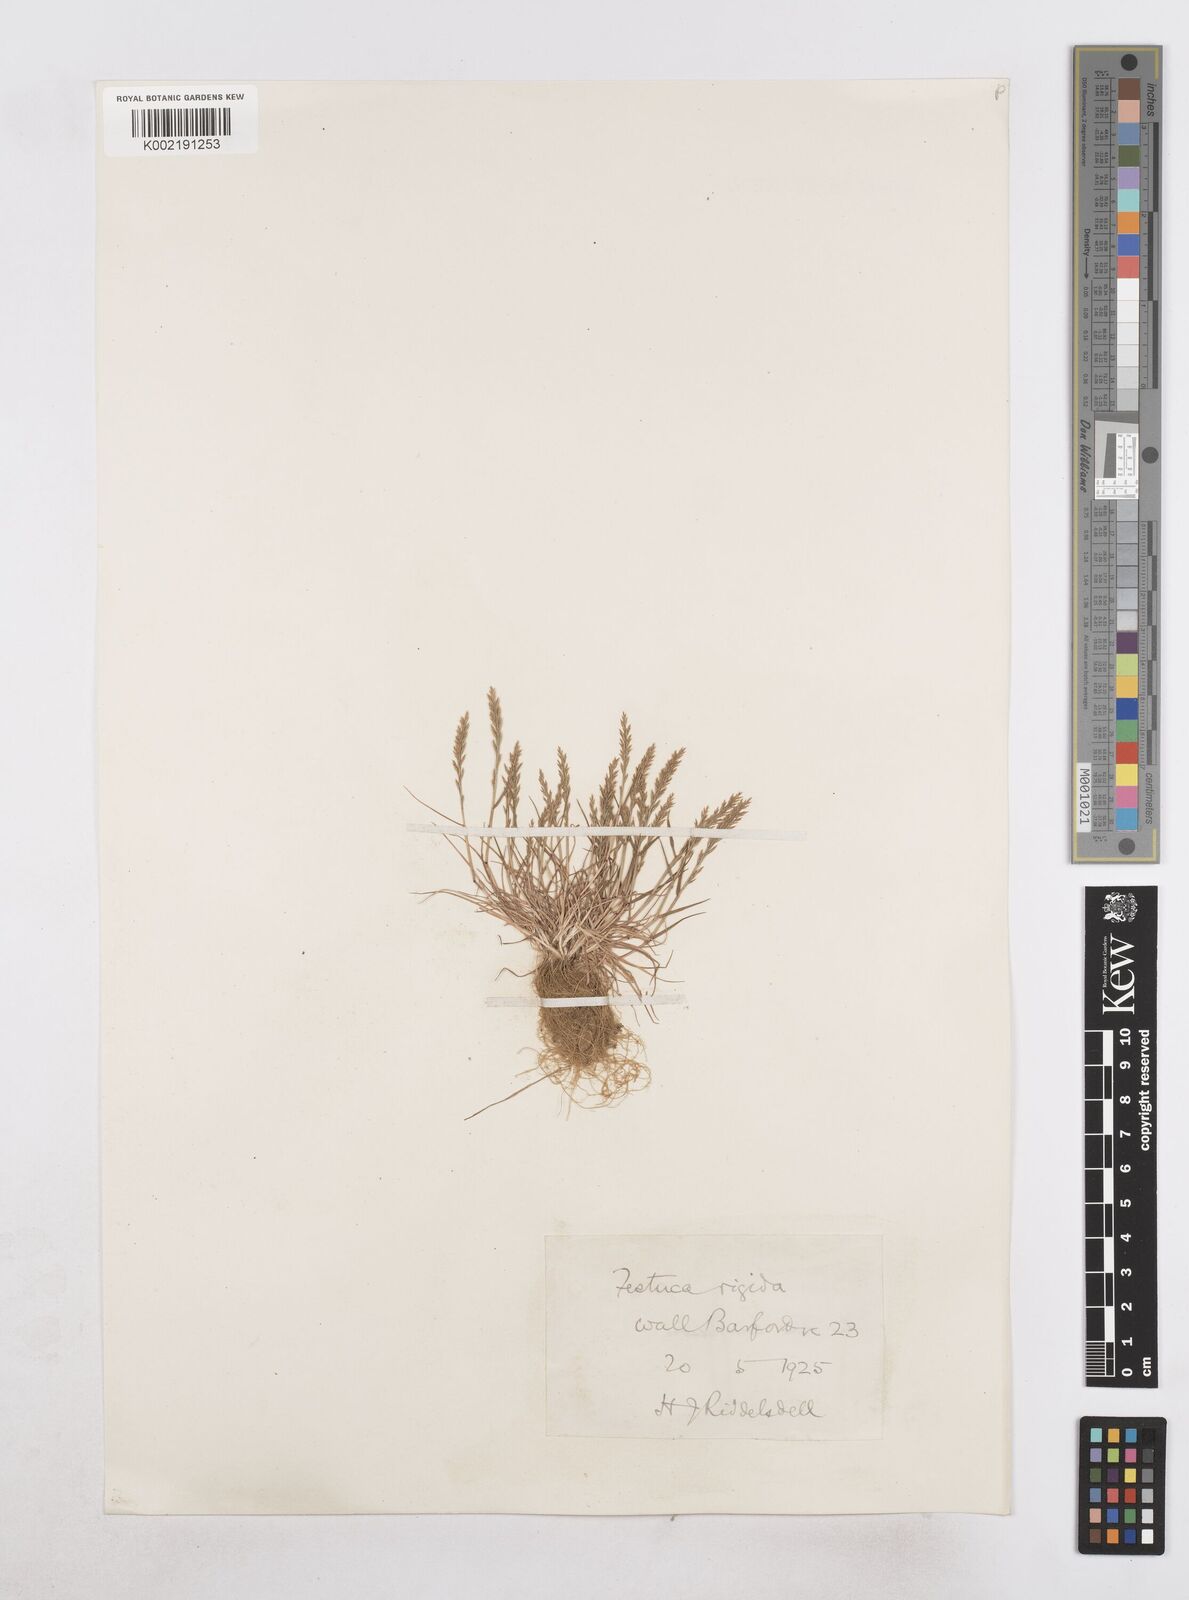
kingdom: Plantae
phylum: Tracheophyta
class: Liliopsida
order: Poales
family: Poaceae
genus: Catapodium
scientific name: Catapodium rigidum
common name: Fern-grass
